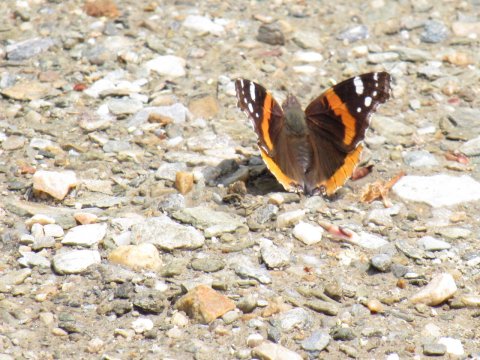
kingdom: Animalia
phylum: Arthropoda
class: Insecta
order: Lepidoptera
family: Nymphalidae
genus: Vanessa
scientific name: Vanessa atalanta
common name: Red Admiral
